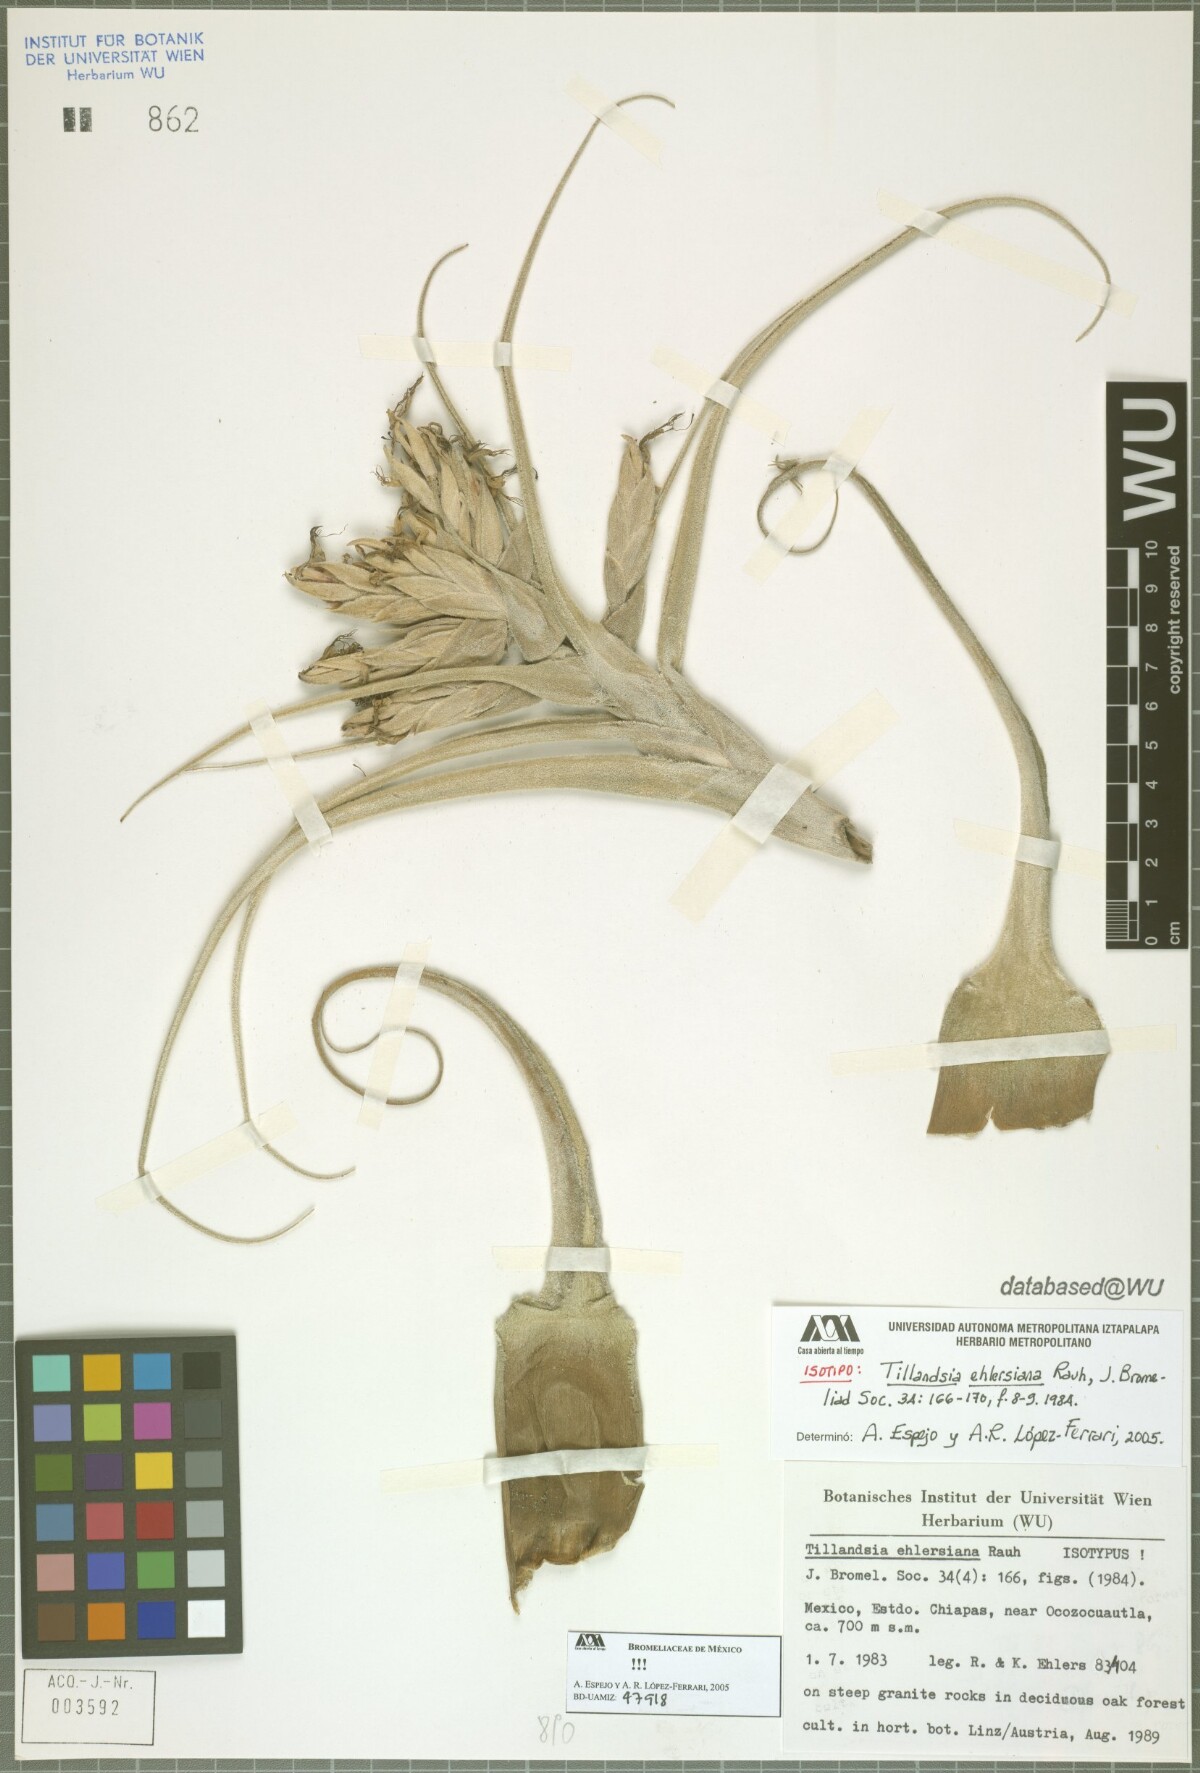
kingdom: Plantae
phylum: Tracheophyta
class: Liliopsida
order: Poales
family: Bromeliaceae
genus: Tillandsia
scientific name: Tillandsia seleriana
